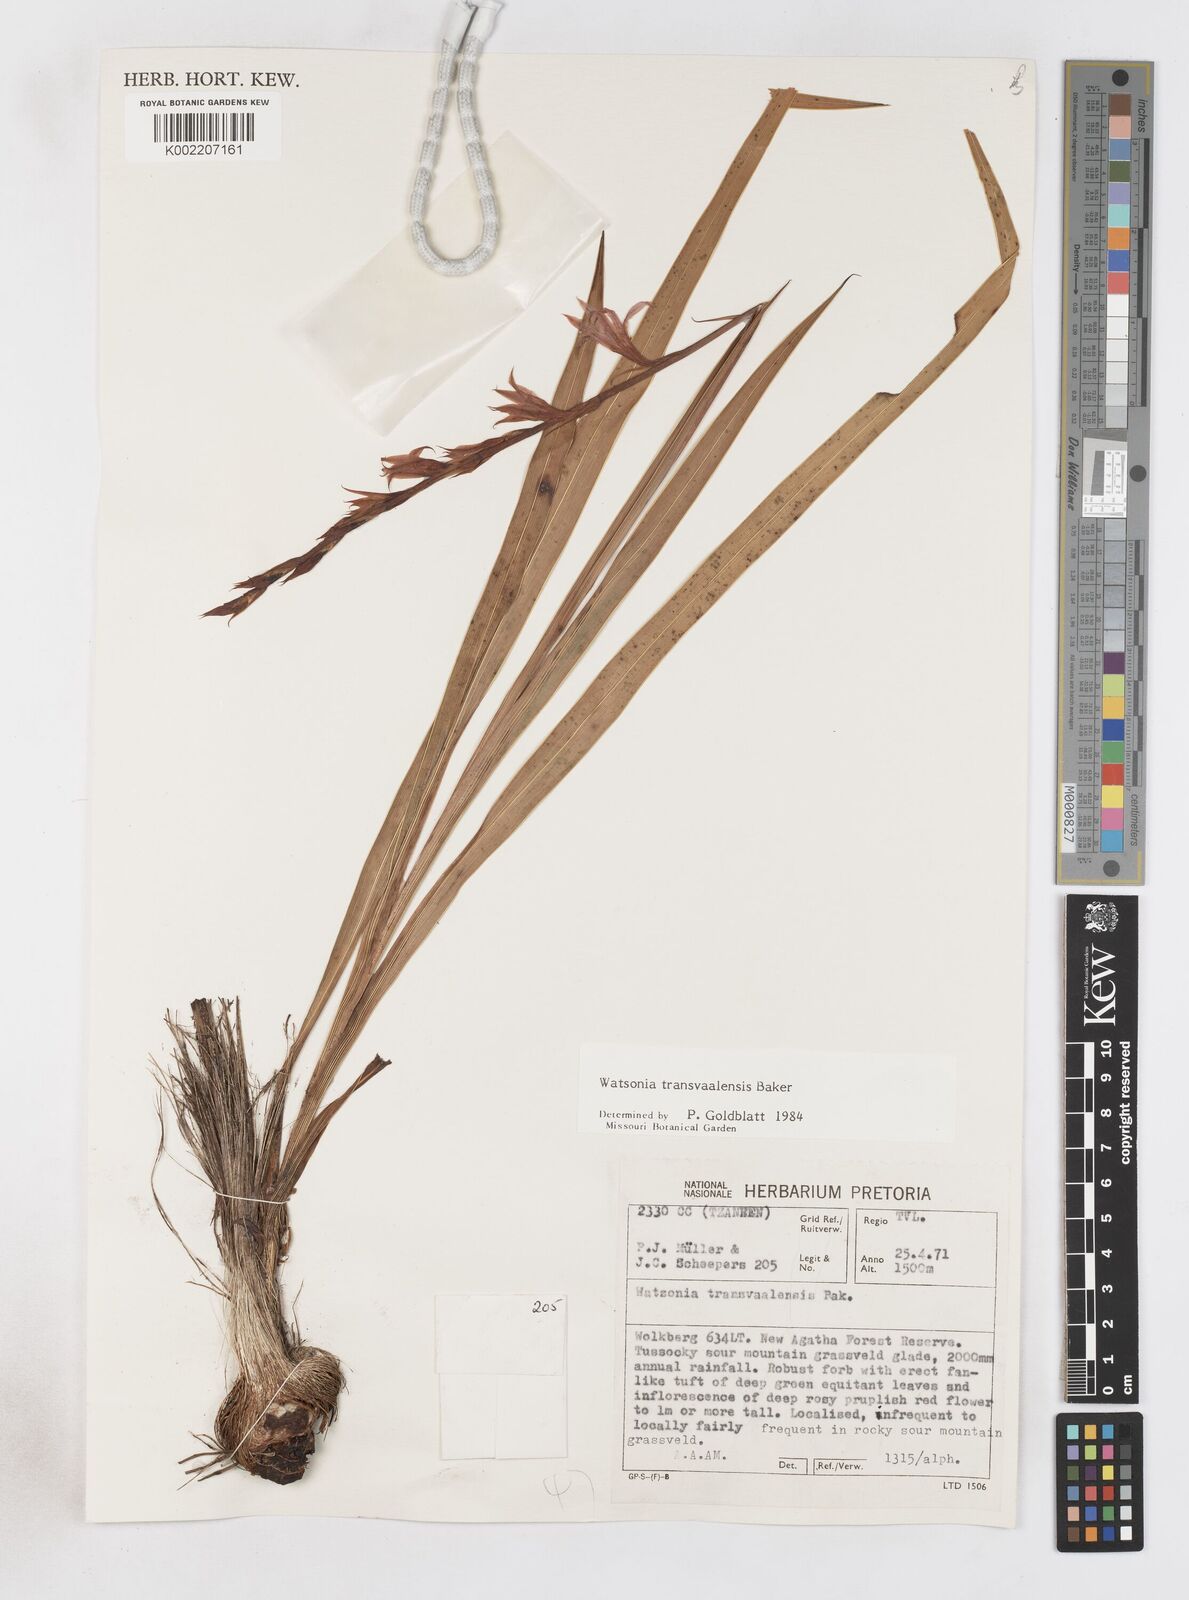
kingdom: Plantae
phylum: Tracheophyta
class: Liliopsida
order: Asparagales
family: Iridaceae
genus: Watsonia
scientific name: Watsonia transvaalensis
